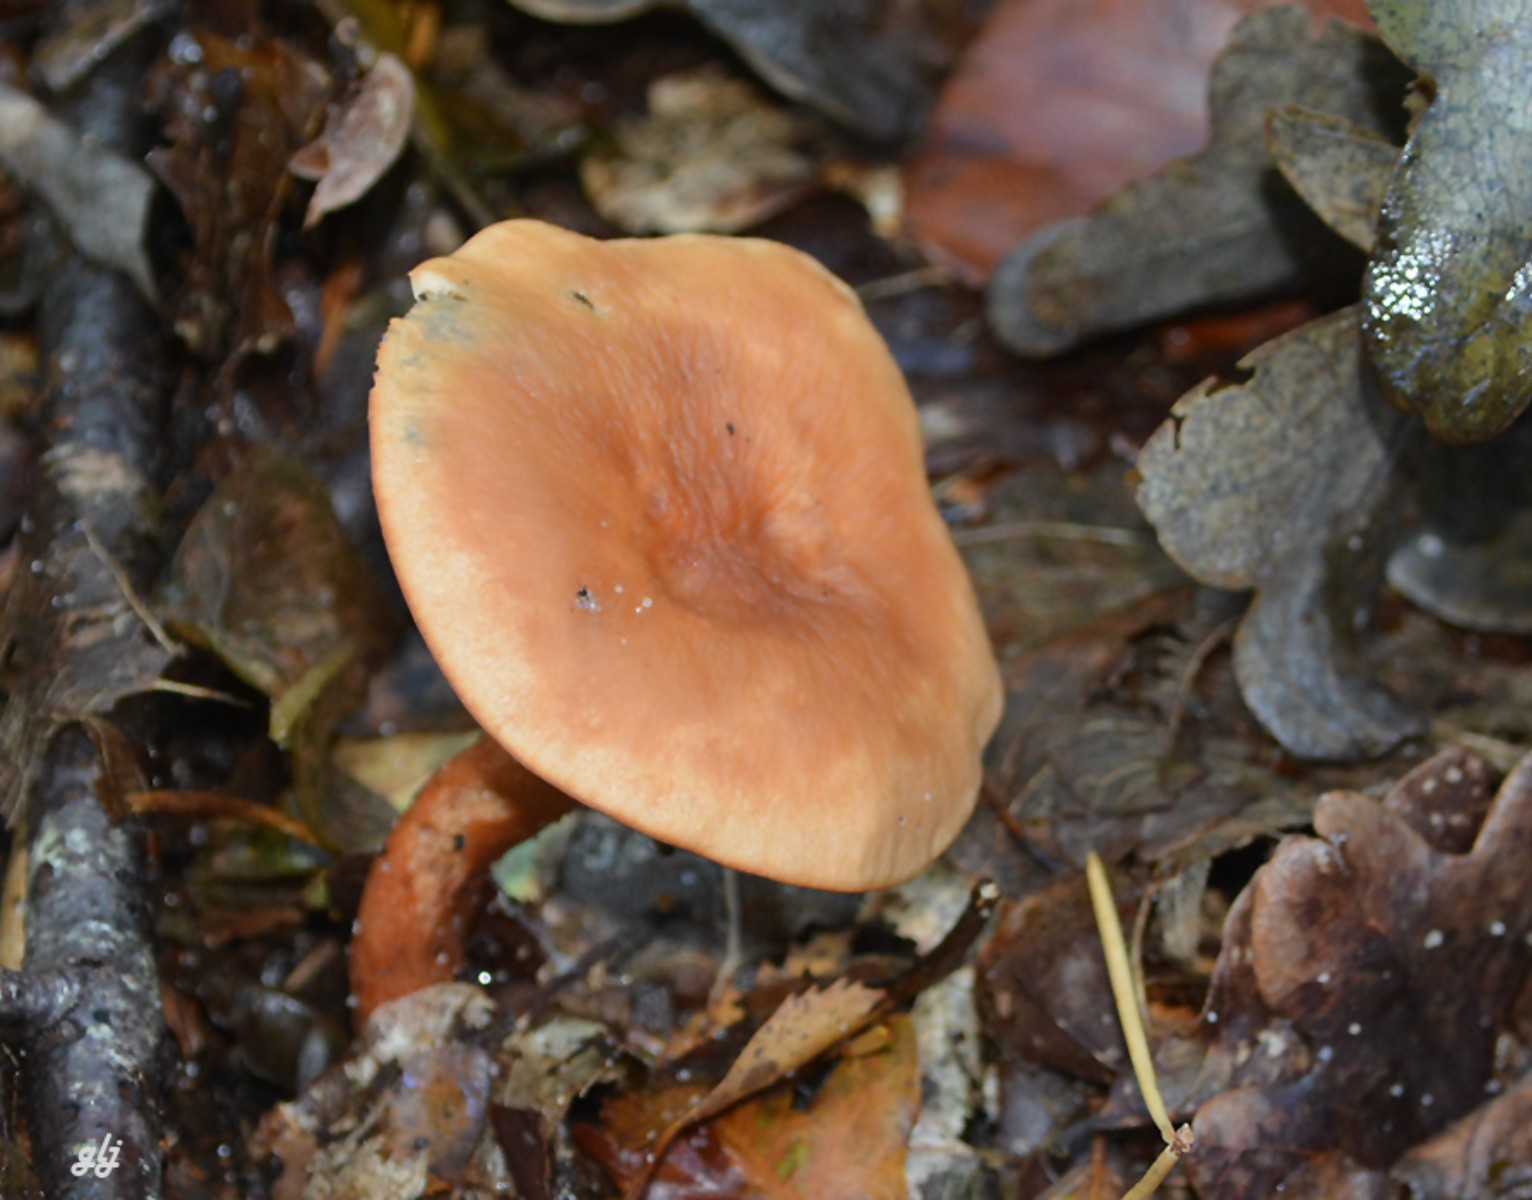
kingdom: Fungi
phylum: Basidiomycota
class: Agaricomycetes
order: Russulales
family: Russulaceae
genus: Lactarius
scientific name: Lactarius tabidus
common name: rynket mælkehat
